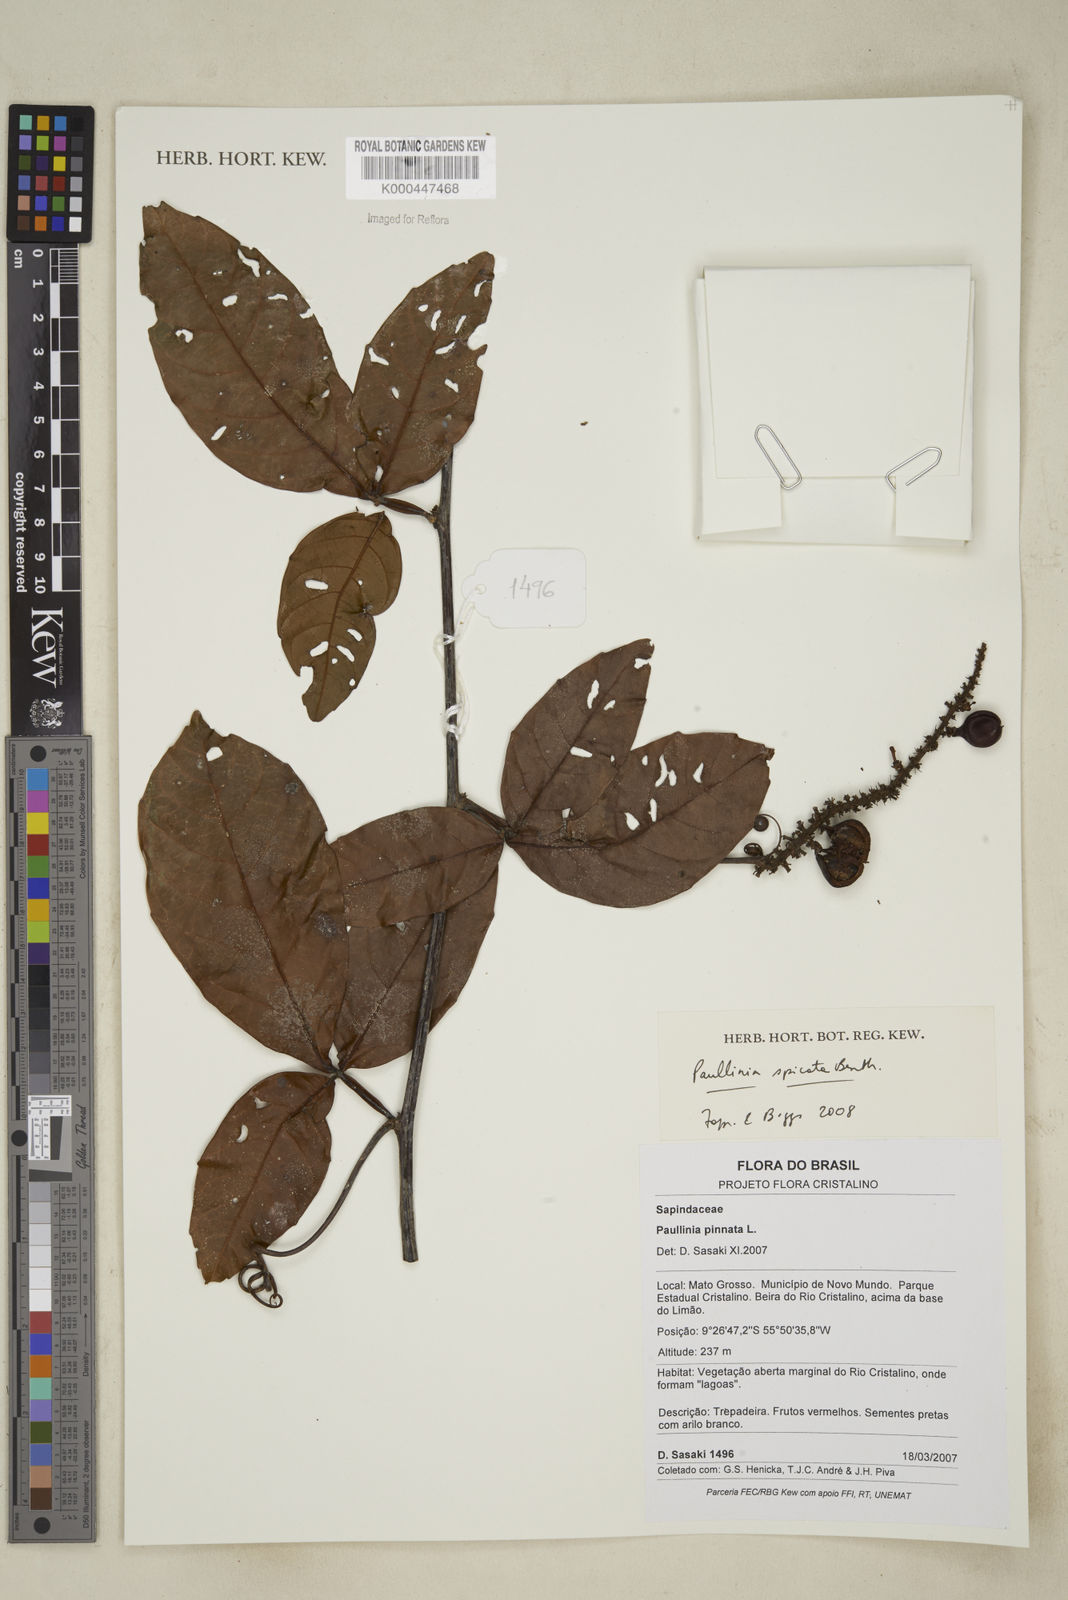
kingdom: Plantae
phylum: Tracheophyta
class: Magnoliopsida
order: Sapindales
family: Sapindaceae
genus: Paullinia
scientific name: Paullinia spicata
